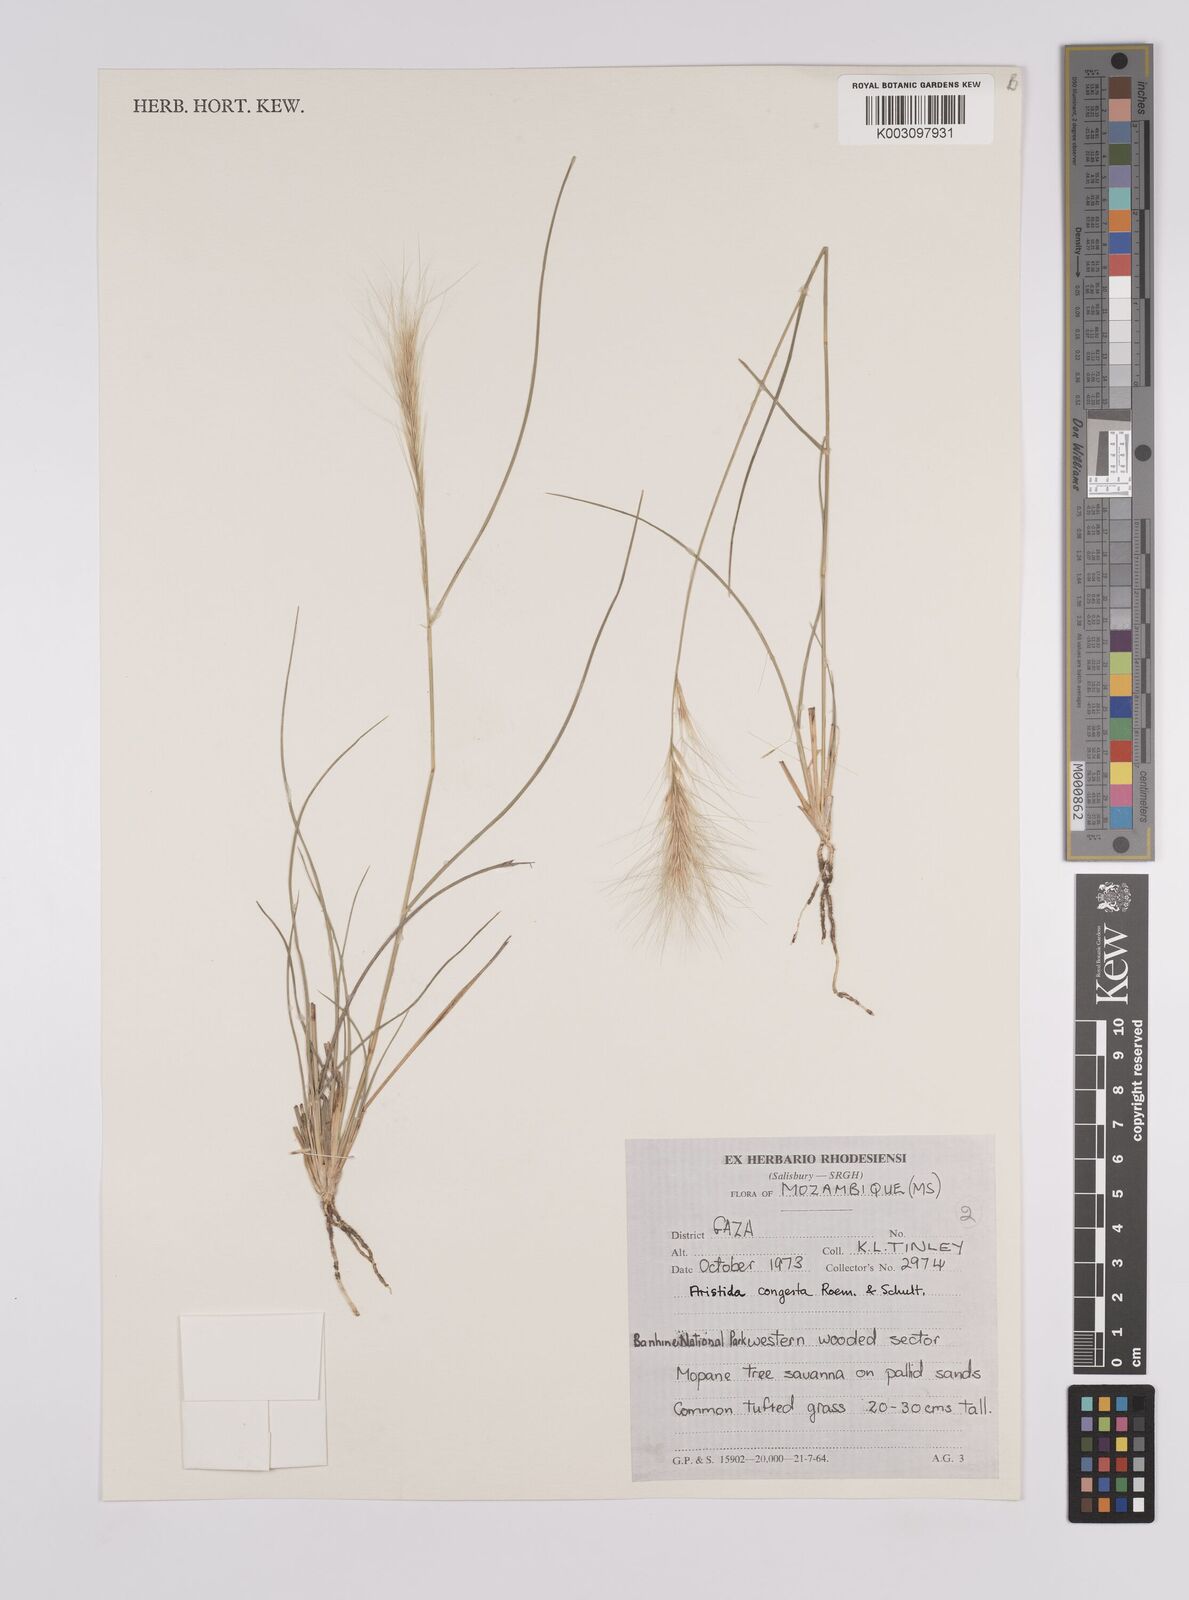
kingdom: Plantae
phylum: Tracheophyta
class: Liliopsida
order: Poales
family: Poaceae
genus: Aristida
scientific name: Aristida congesta
